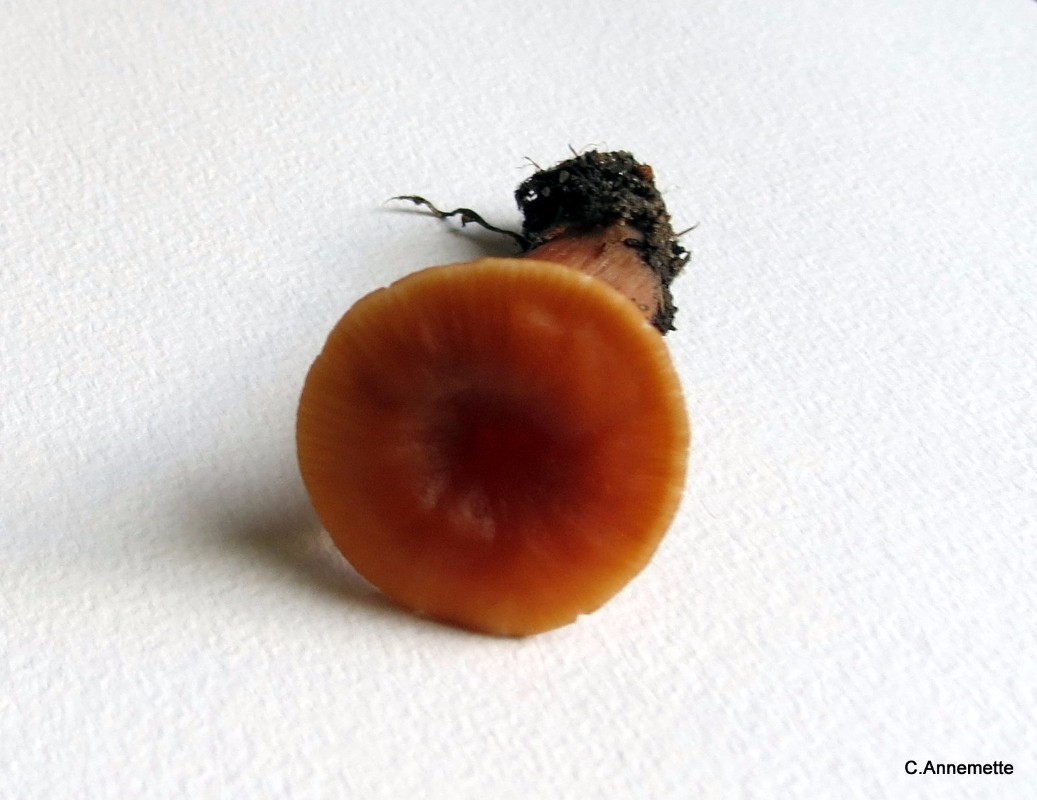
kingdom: Fungi
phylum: Basidiomycota
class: Agaricomycetes
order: Agaricales
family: Hydnangiaceae
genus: Laccaria
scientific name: Laccaria laccata
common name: rød ametysthat
